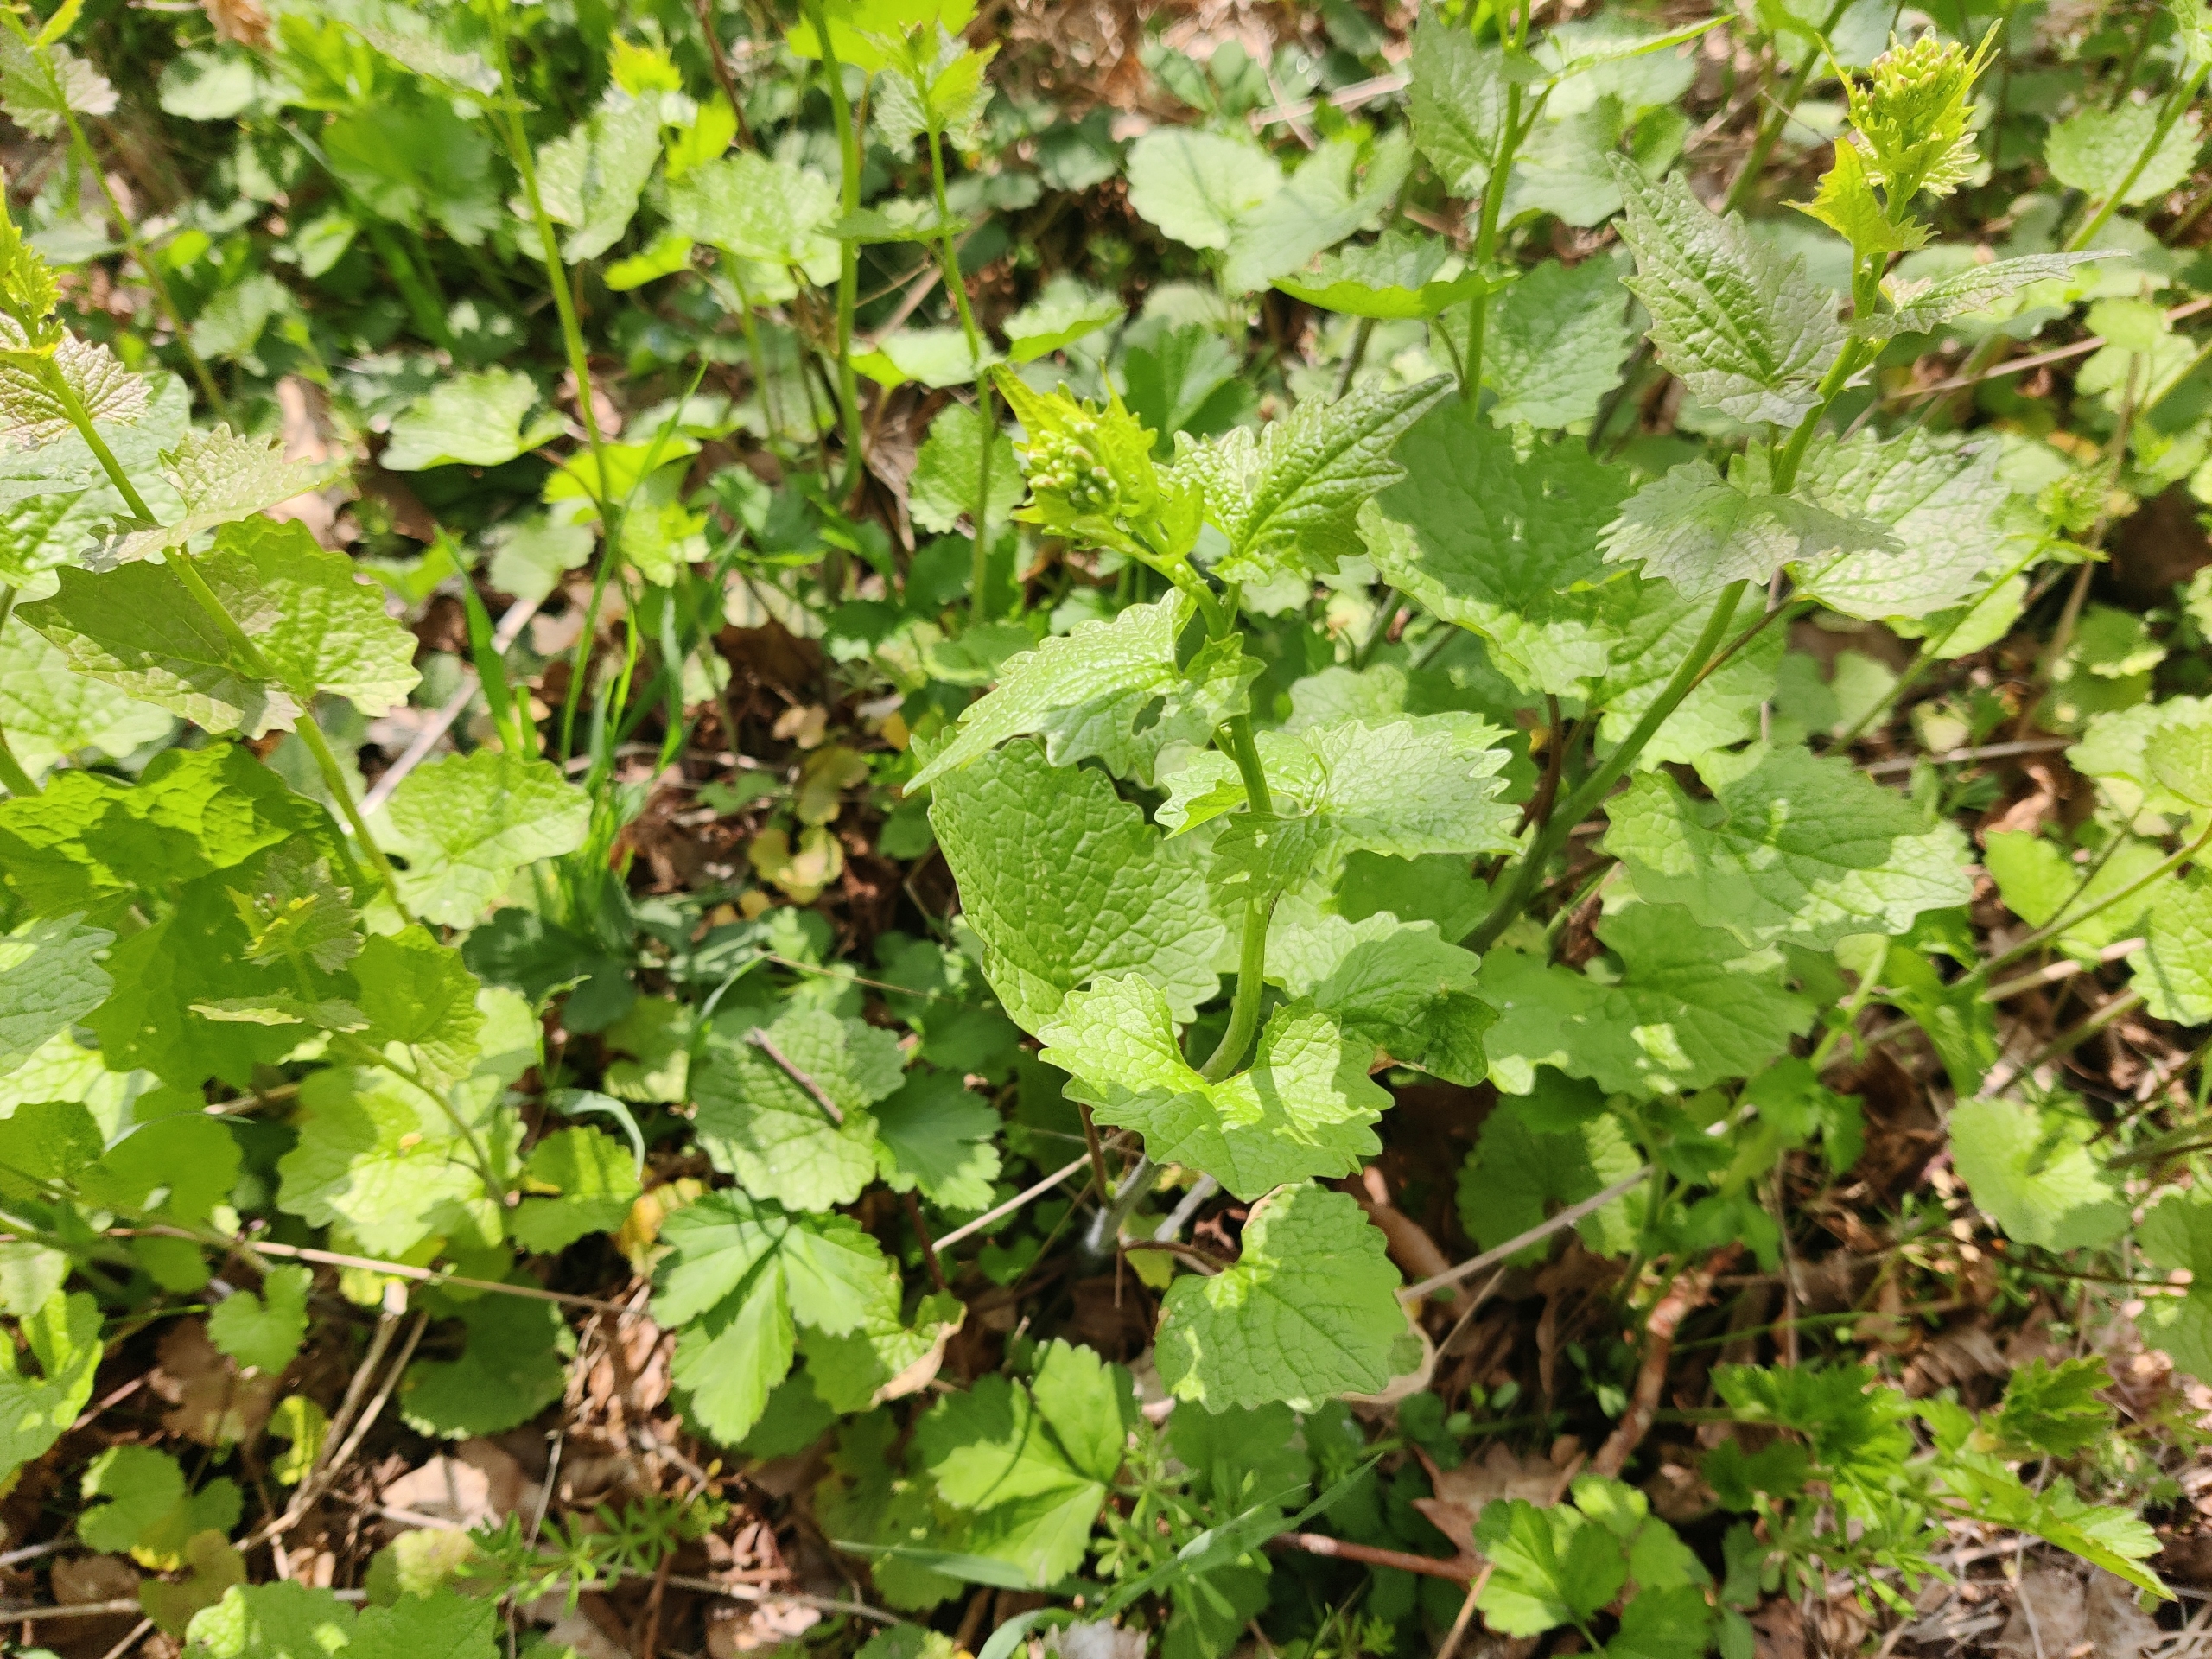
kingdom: Plantae
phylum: Tracheophyta
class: Magnoliopsida
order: Brassicales
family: Brassicaceae
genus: Alliaria
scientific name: Alliaria petiolata
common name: Løgkarse
